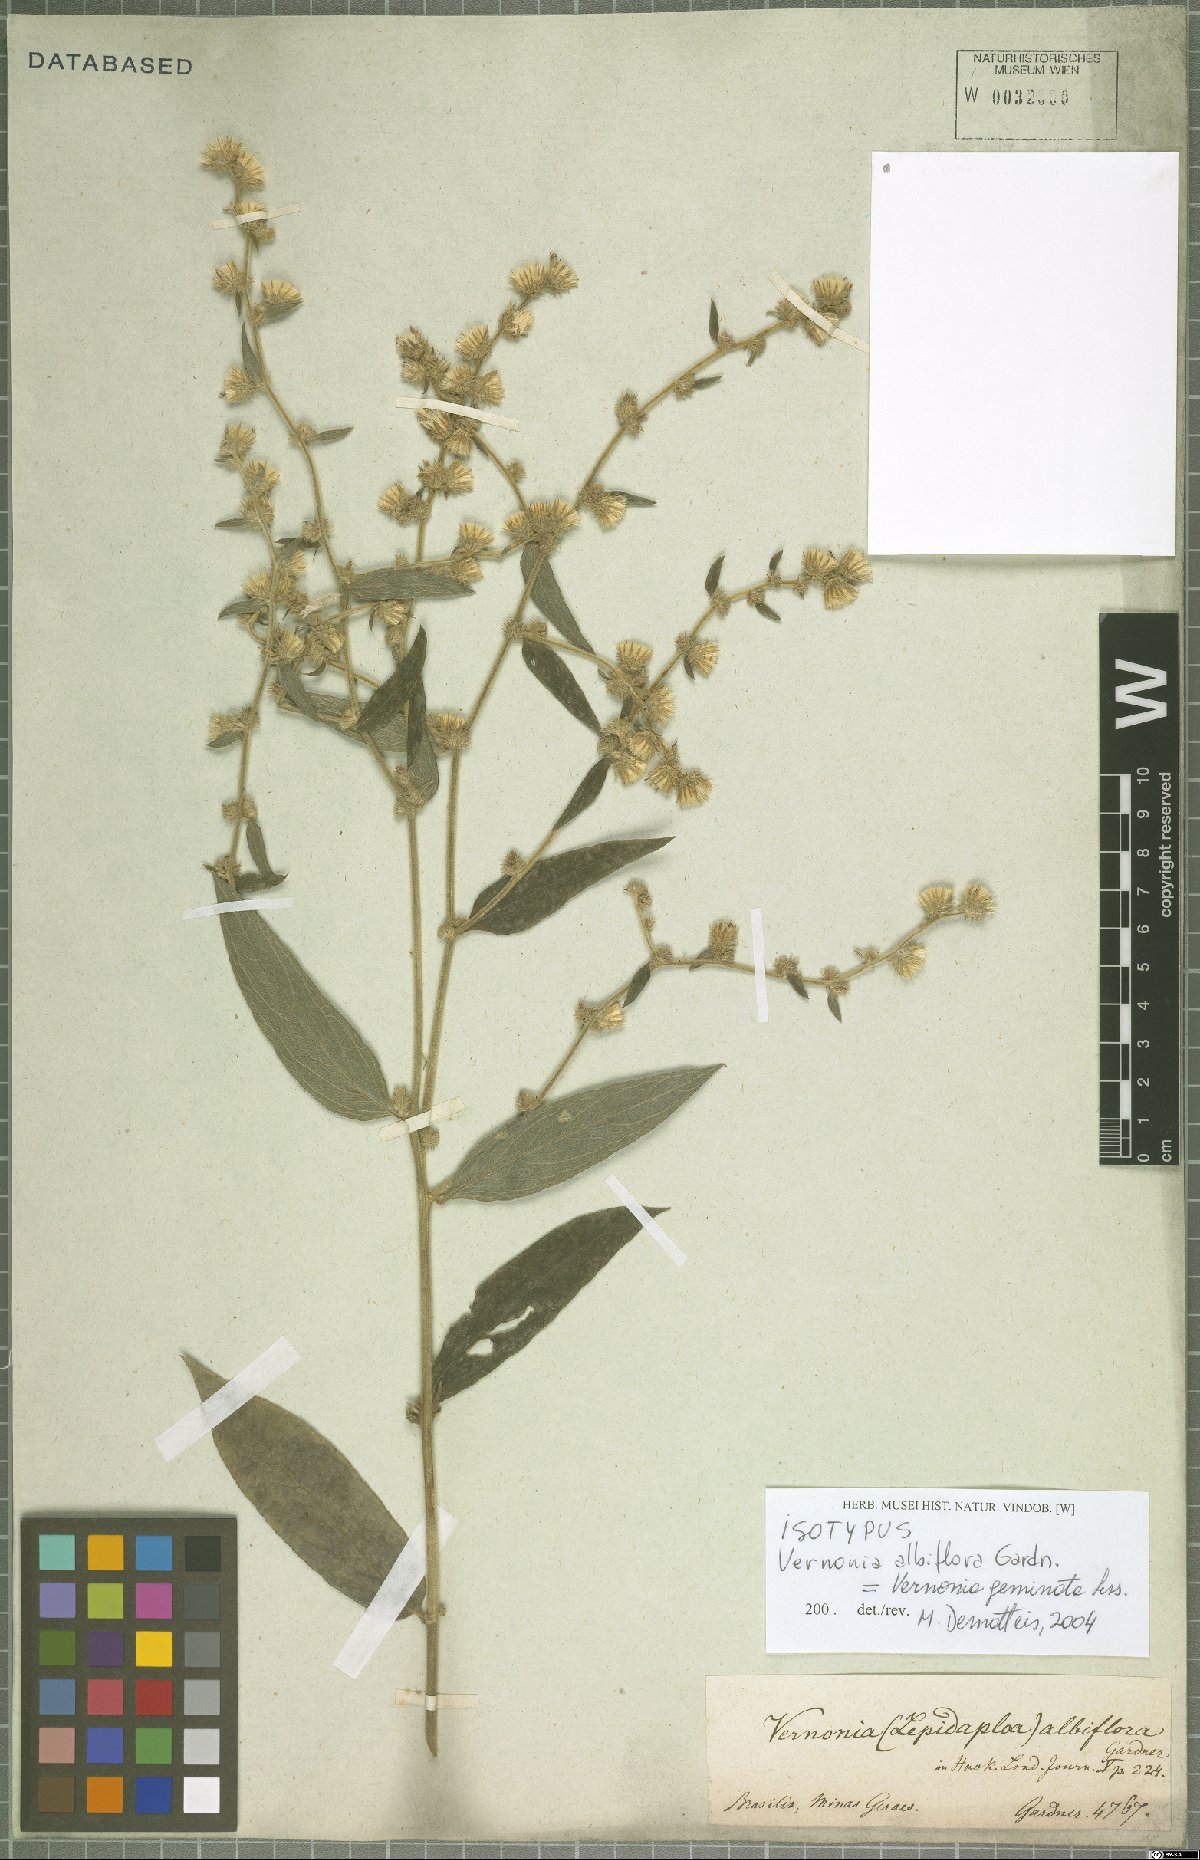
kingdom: Plantae
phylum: Tracheophyta
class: Magnoliopsida
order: Asterales
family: Asteraceae
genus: Lepidaploa
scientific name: Lepidaploa subsquarrosa
